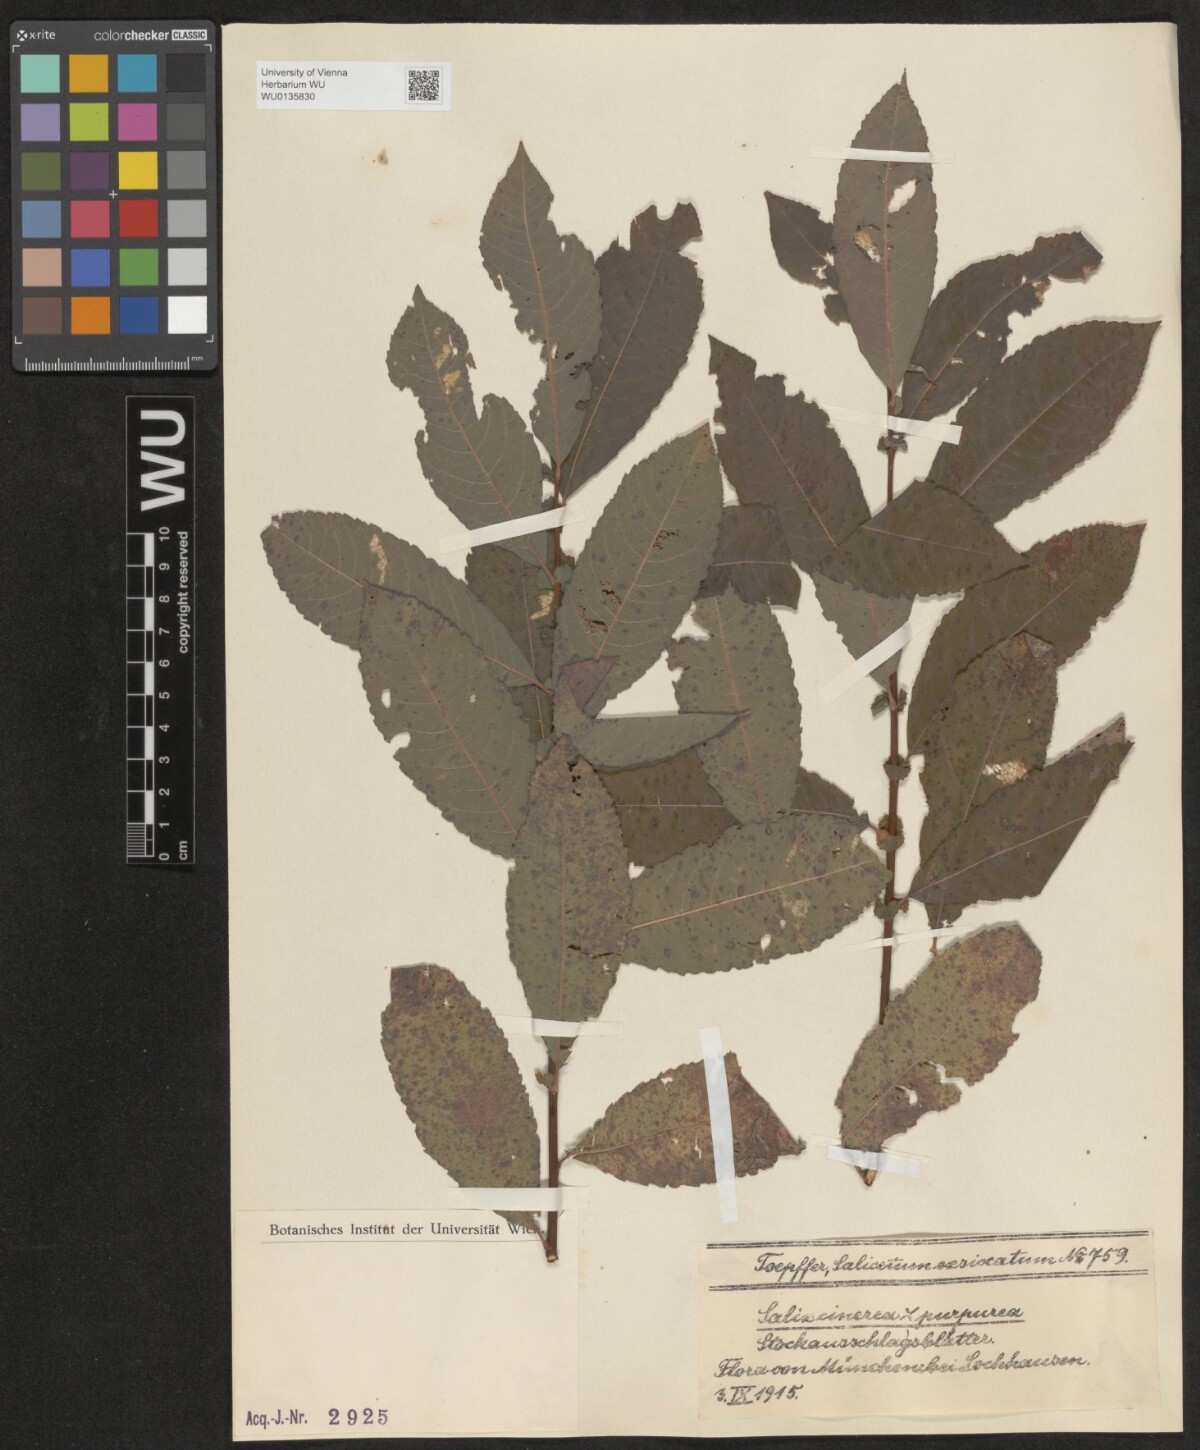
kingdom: Plantae
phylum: Tracheophyta
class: Magnoliopsida
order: Malpighiales
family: Salicaceae
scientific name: Salicaceae
